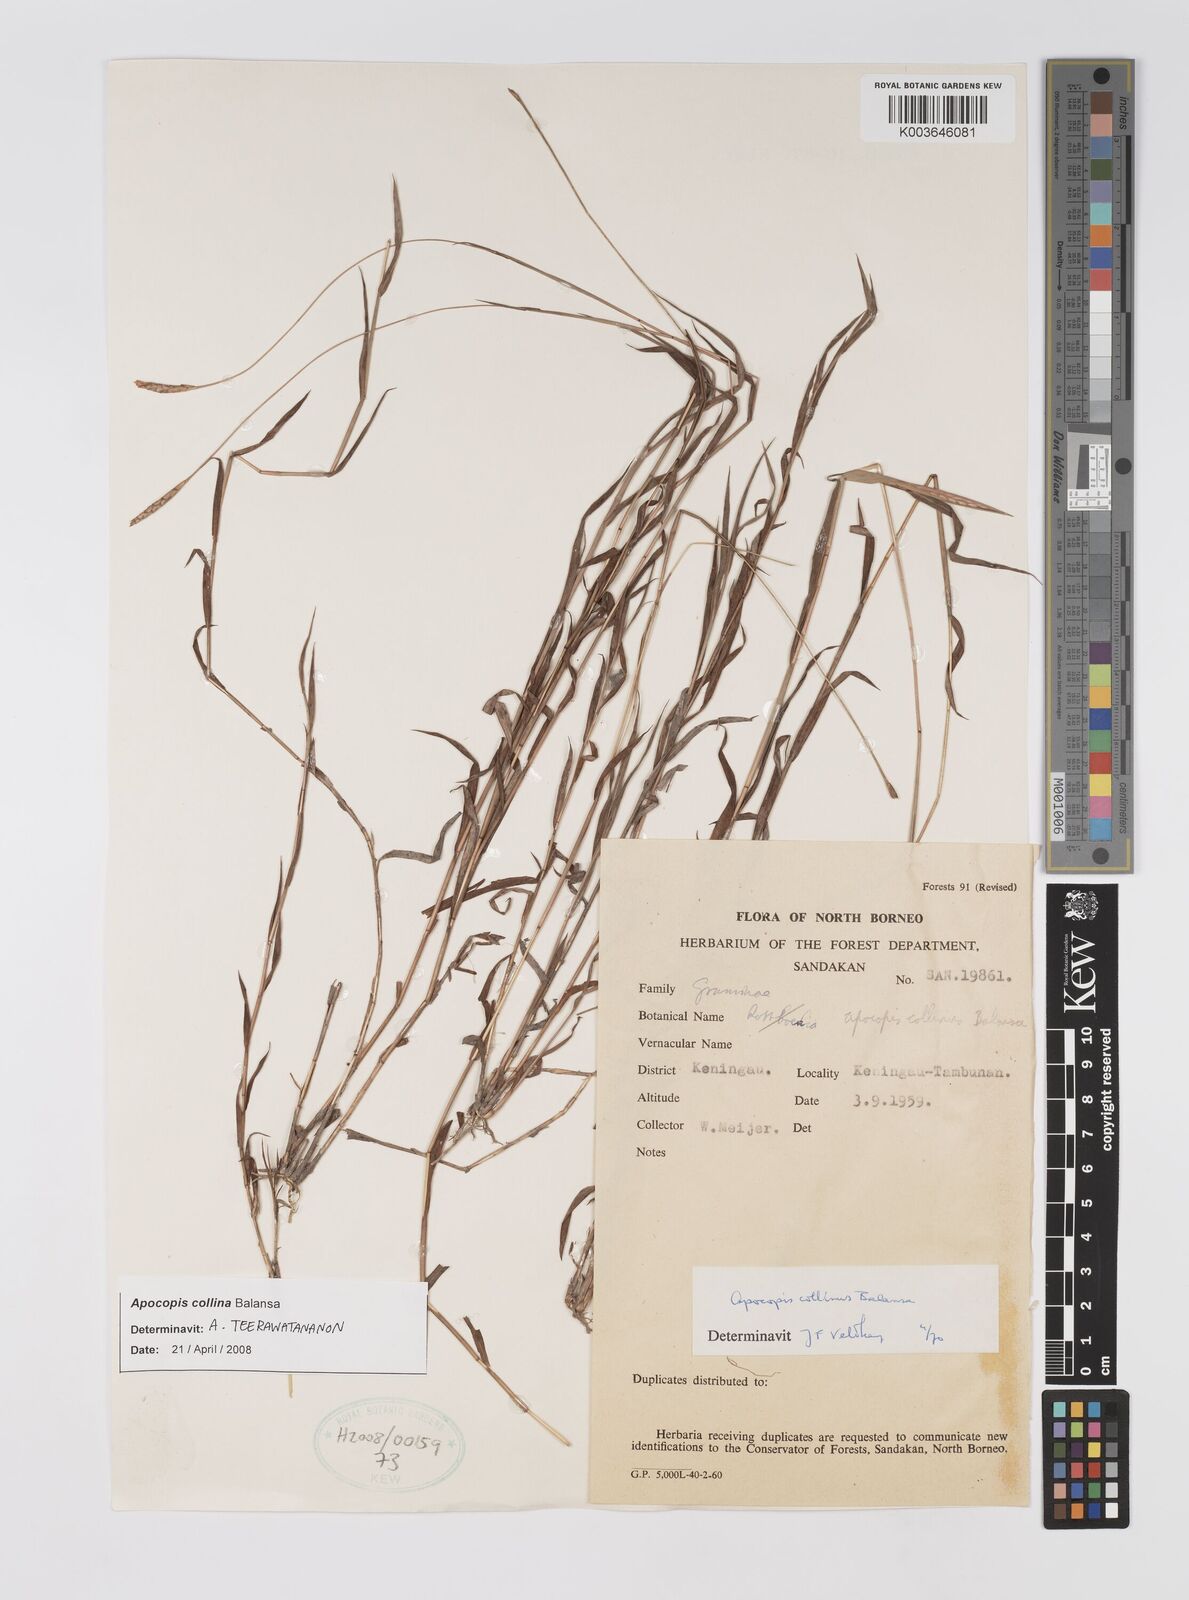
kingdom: Plantae
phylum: Tracheophyta
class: Liliopsida
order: Poales
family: Poaceae
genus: Apocopis
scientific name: Apocopis collinus
